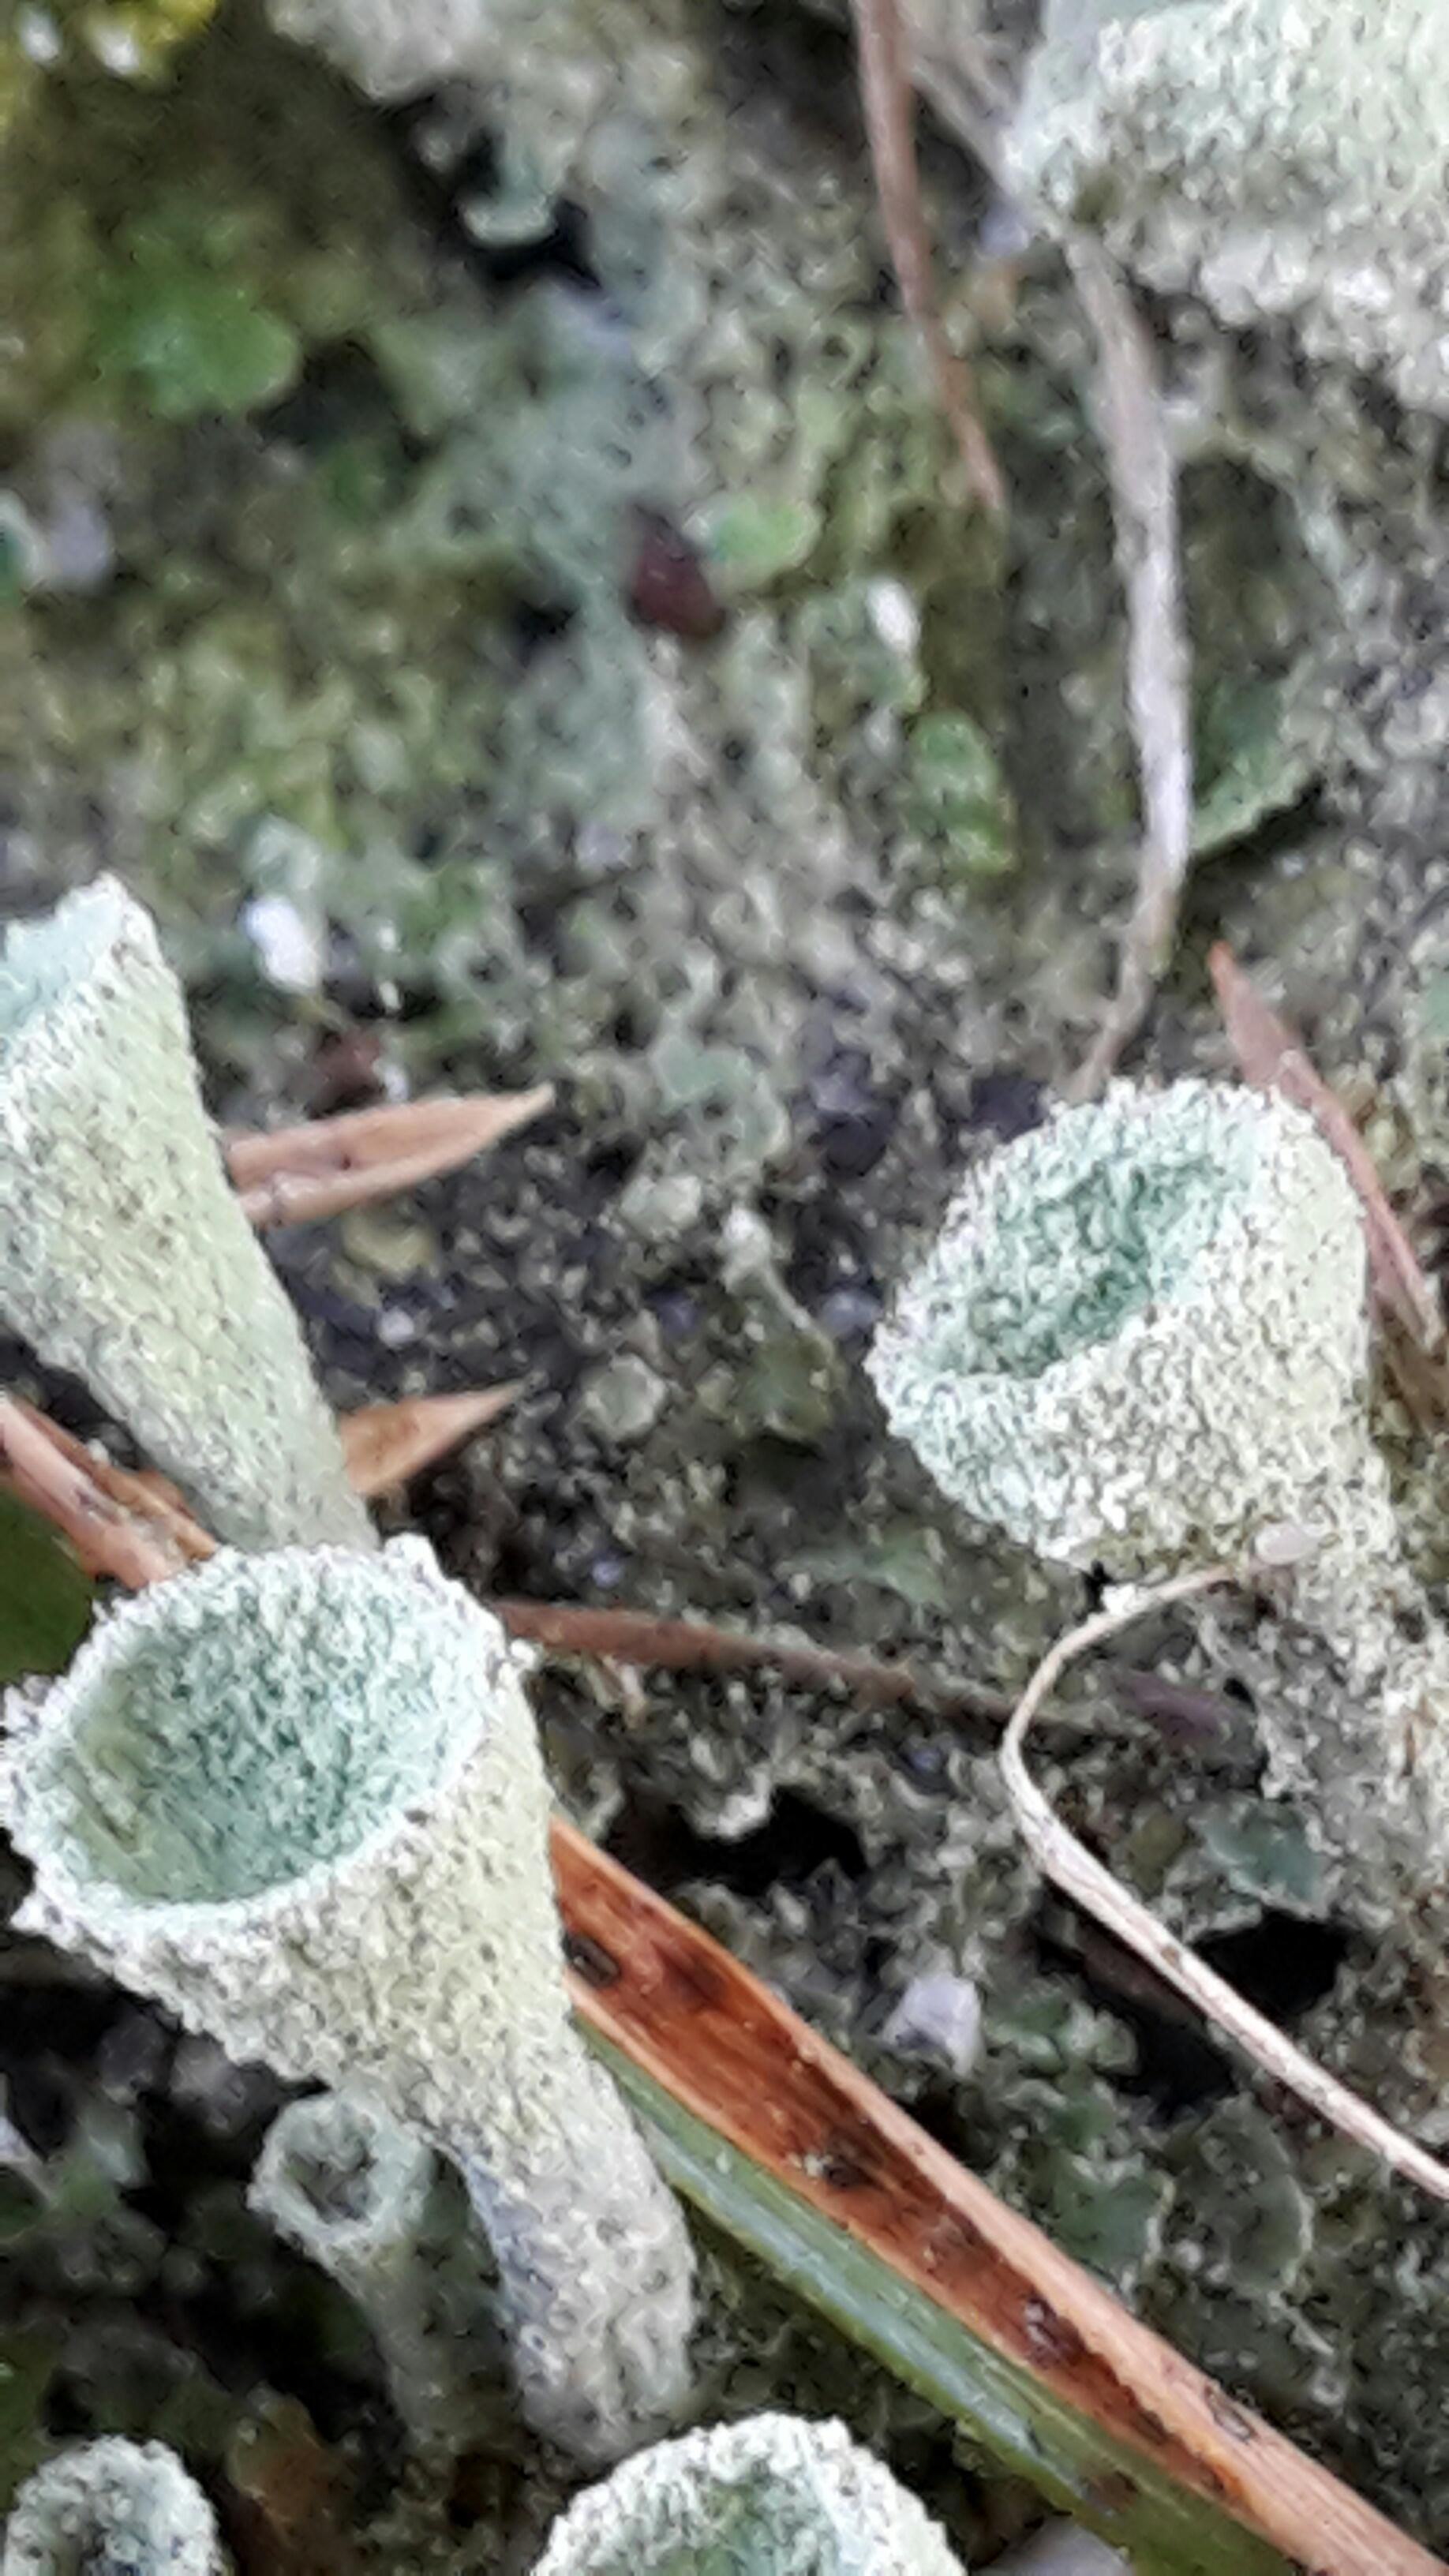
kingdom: Fungi
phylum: Ascomycota
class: Lecanoromycetes
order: Lecanorales
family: Cladoniaceae
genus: Cladonia
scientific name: Cladonia
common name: brungrøn bægerlav
